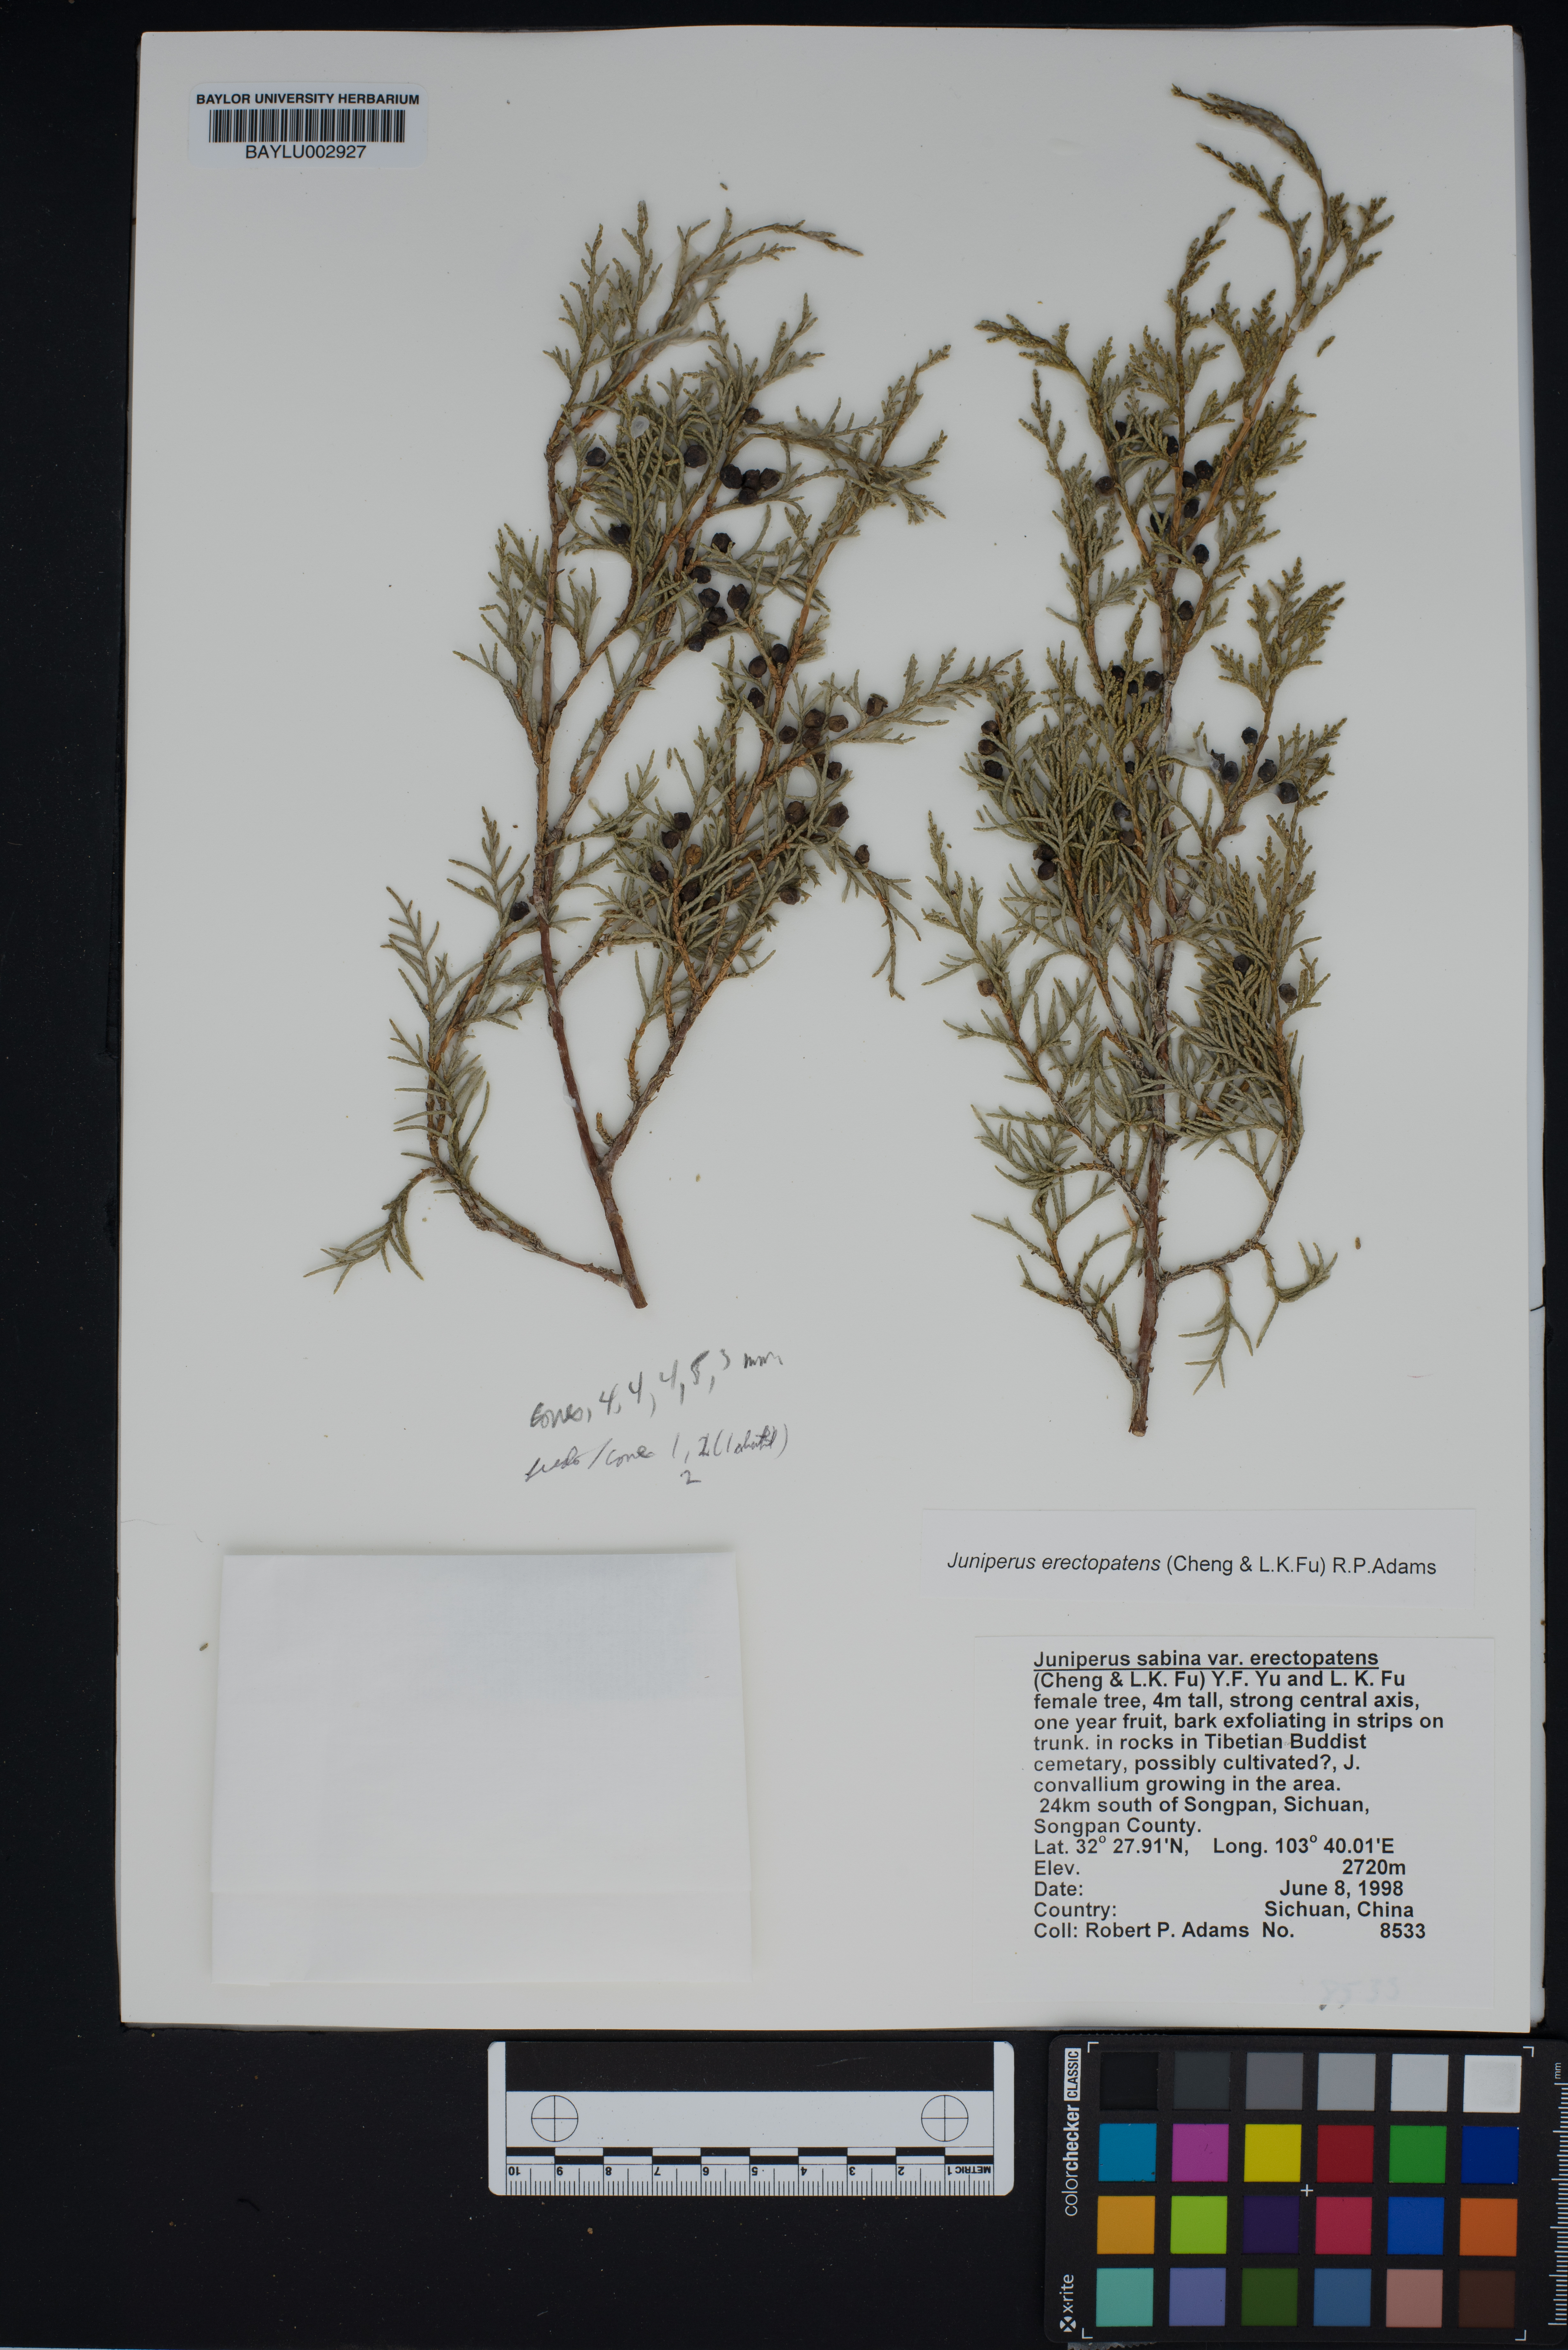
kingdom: Plantae
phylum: Tracheophyta
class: Pinopsida
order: Pinales
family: Cupressaceae
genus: Juniperus
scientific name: Juniperus chinensis
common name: Chinese juniper
